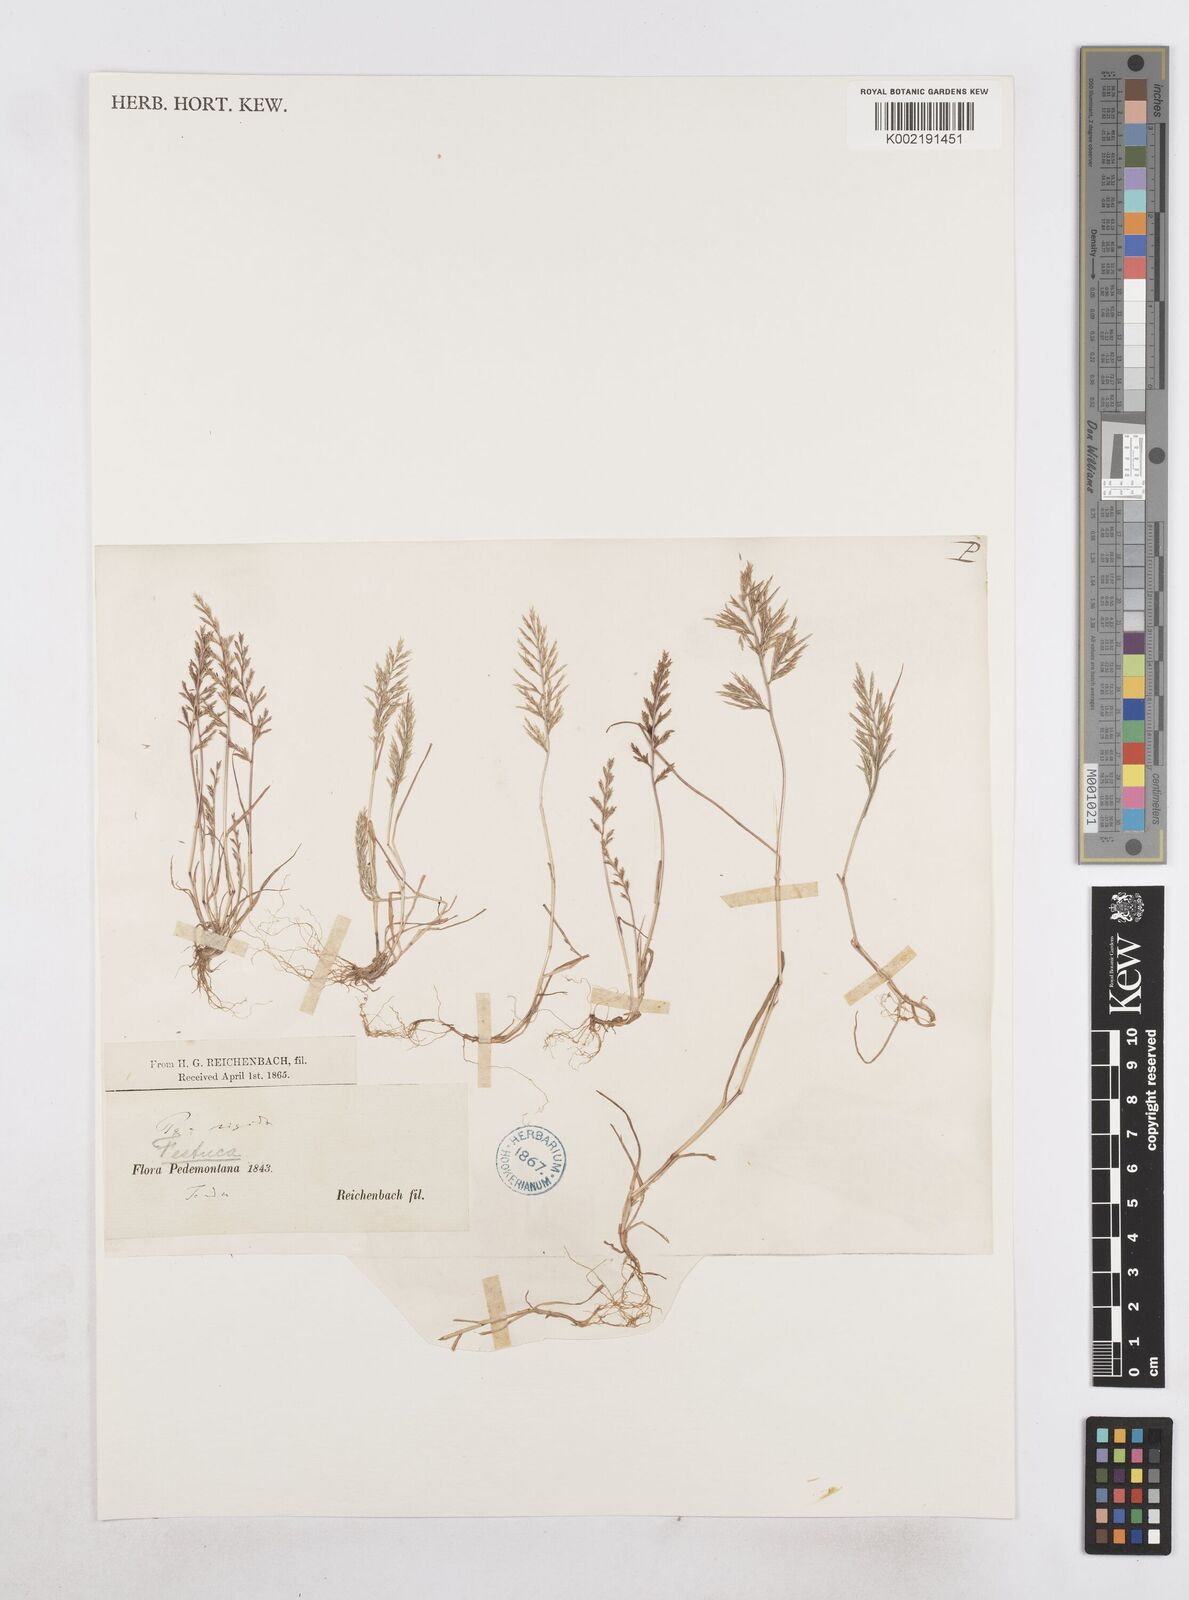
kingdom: Plantae
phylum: Tracheophyta
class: Liliopsida
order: Poales
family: Poaceae
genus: Catapodium
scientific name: Catapodium rigidum
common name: Fern-grass
